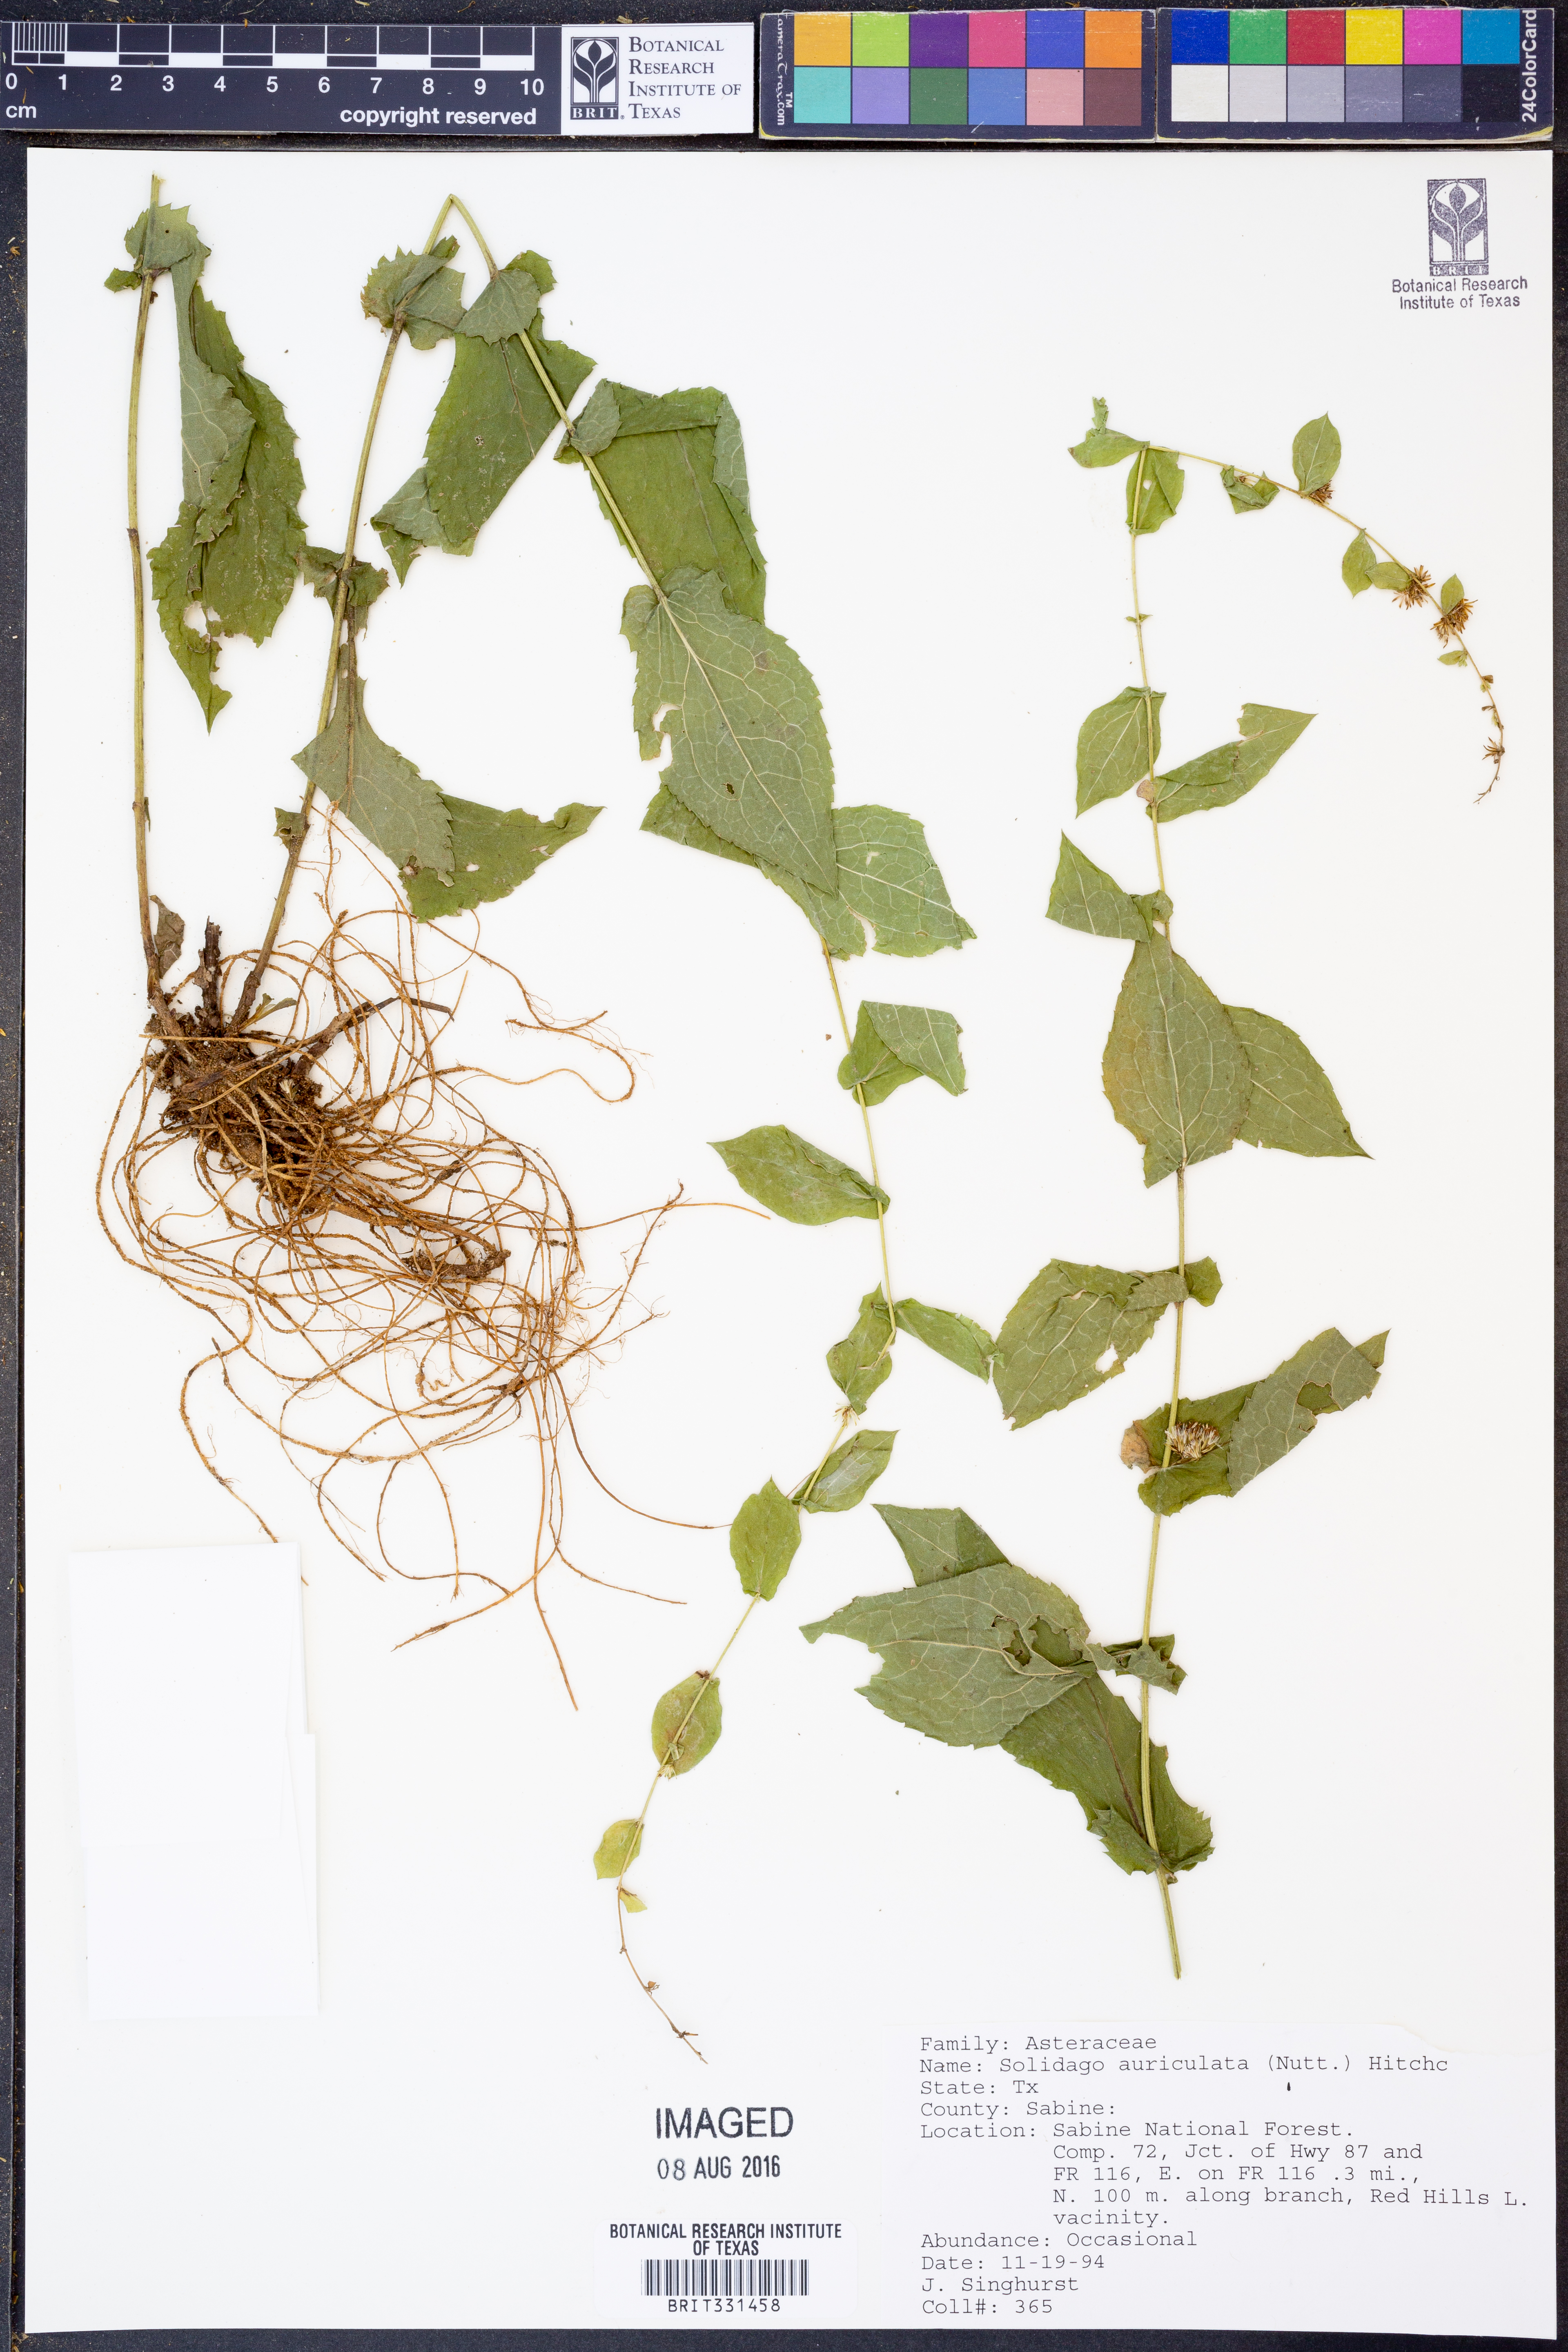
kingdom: Plantae
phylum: Tracheophyta
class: Magnoliopsida
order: Asterales
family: Asteraceae
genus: Solidago
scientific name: Solidago auriculata
